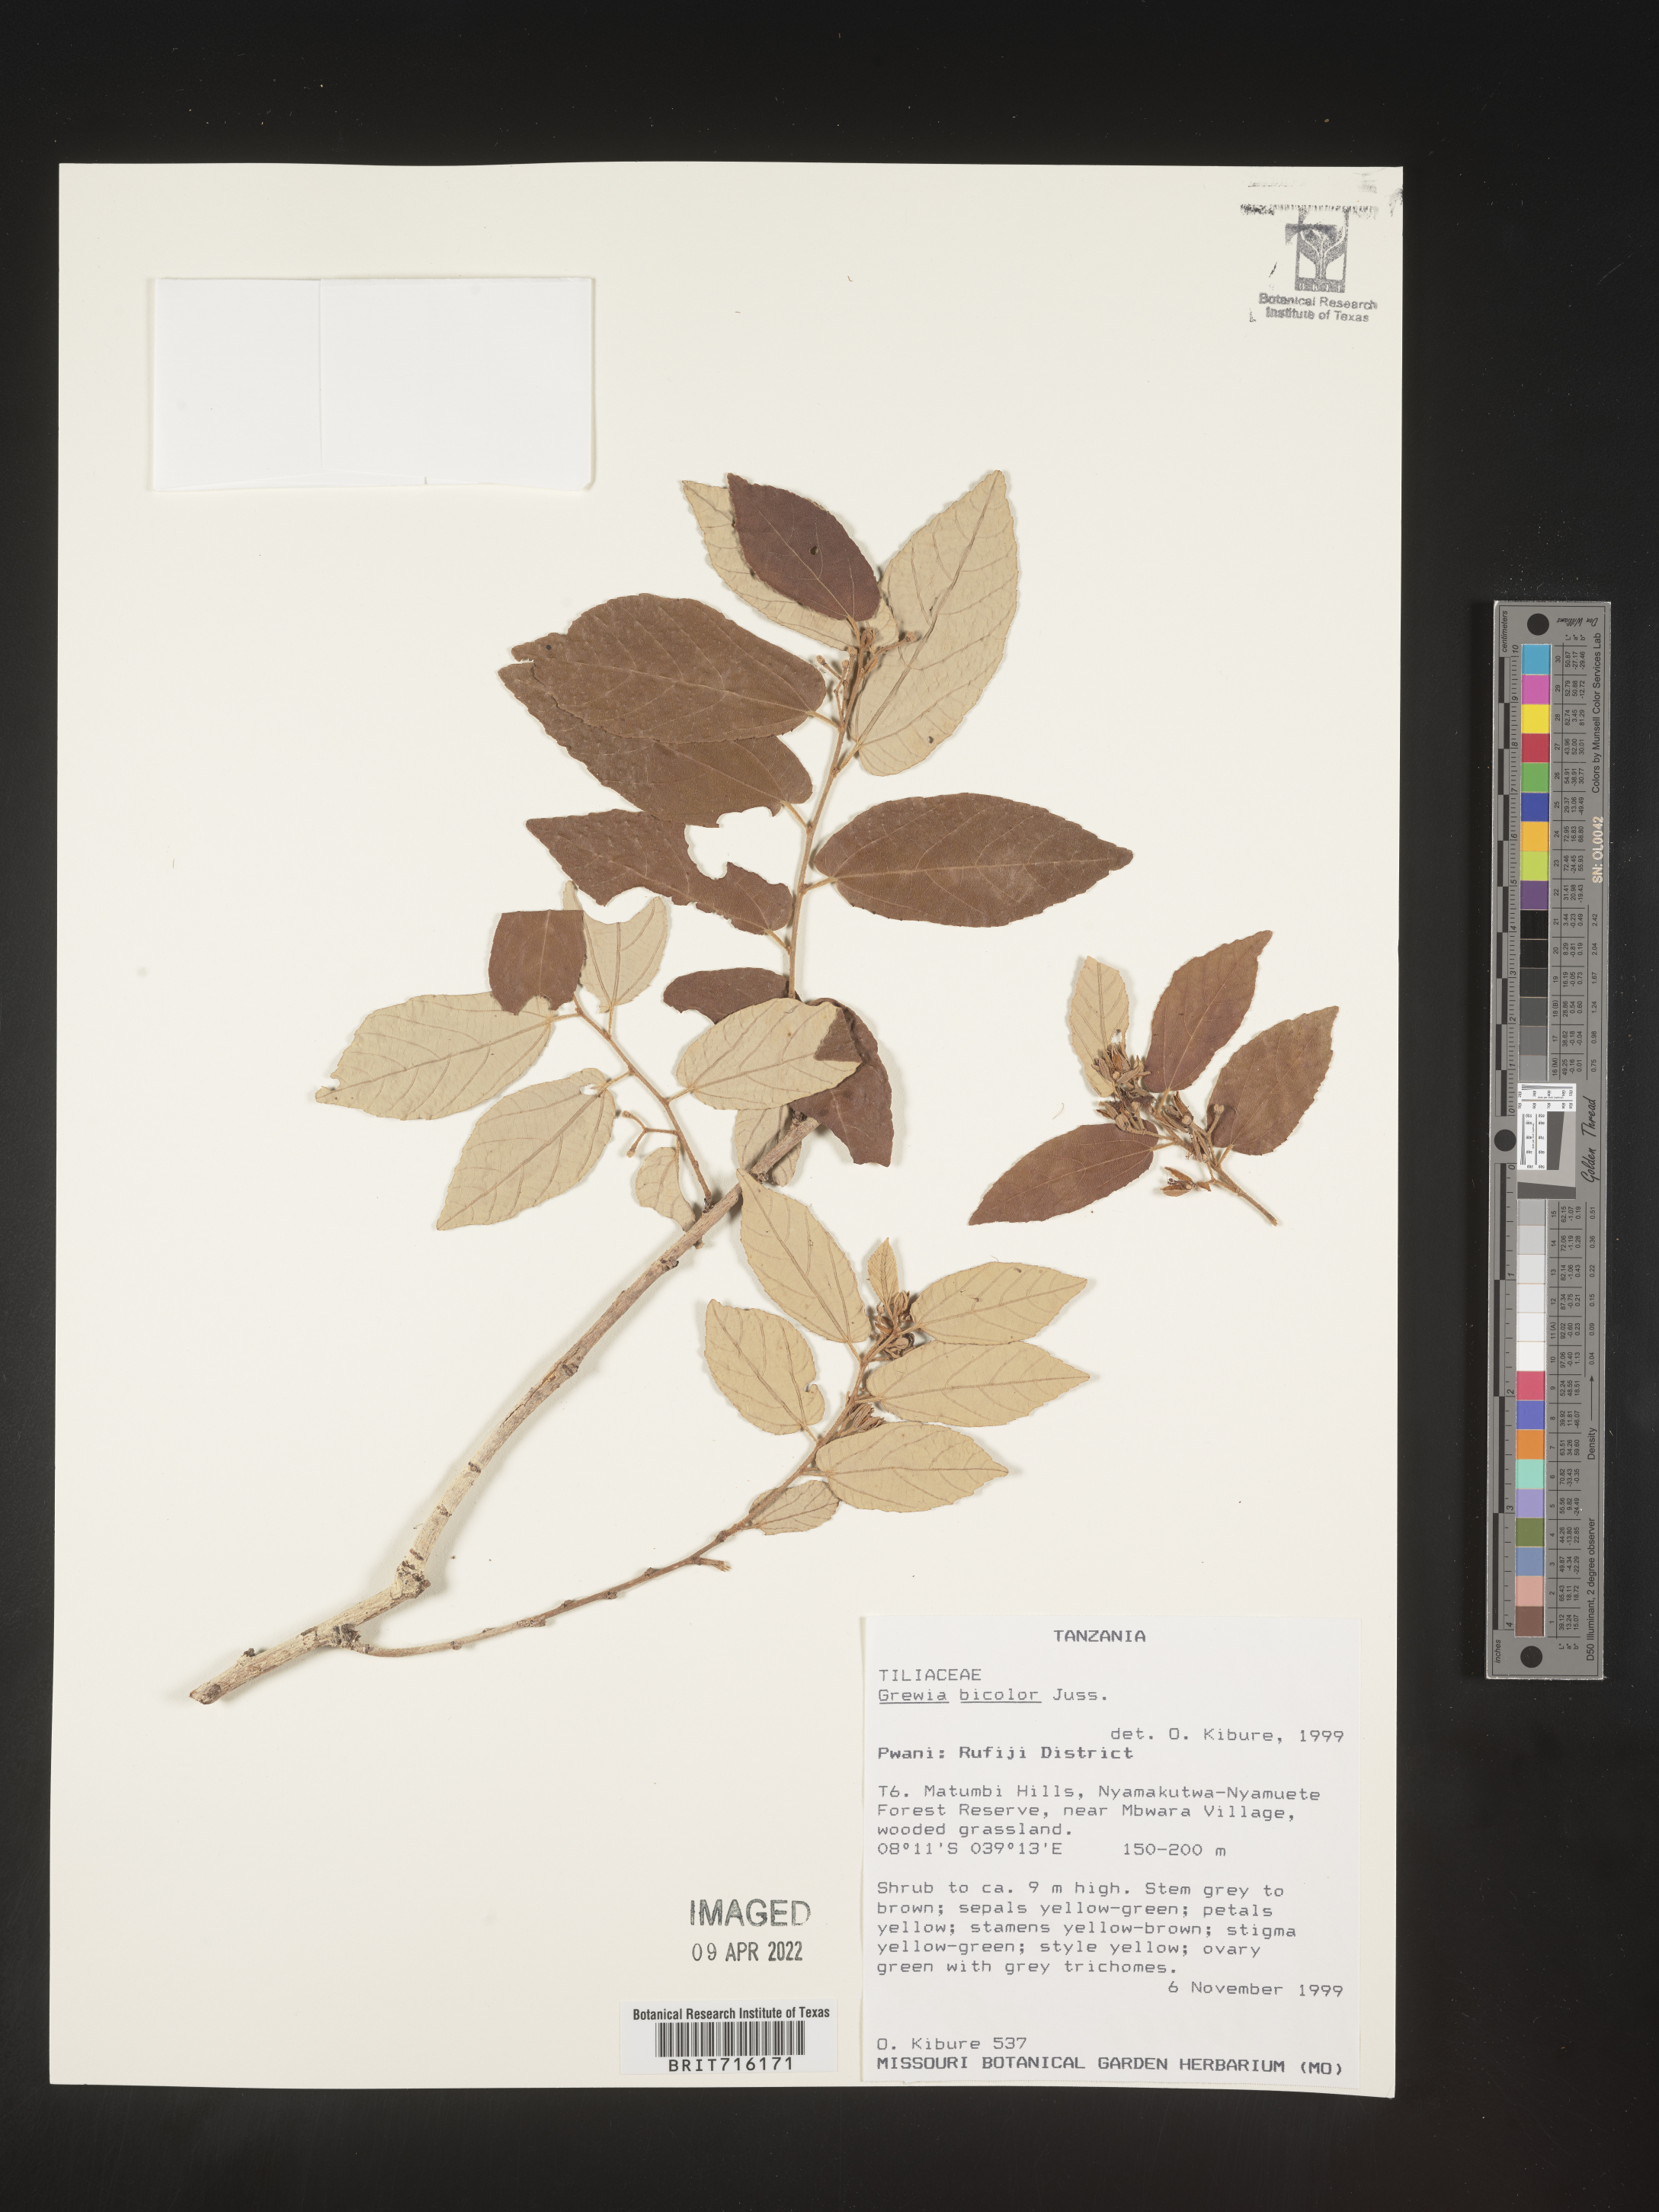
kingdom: Plantae
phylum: Tracheophyta
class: Magnoliopsida
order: Malvales
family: Malvaceae
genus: Grewia
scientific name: Grewia
